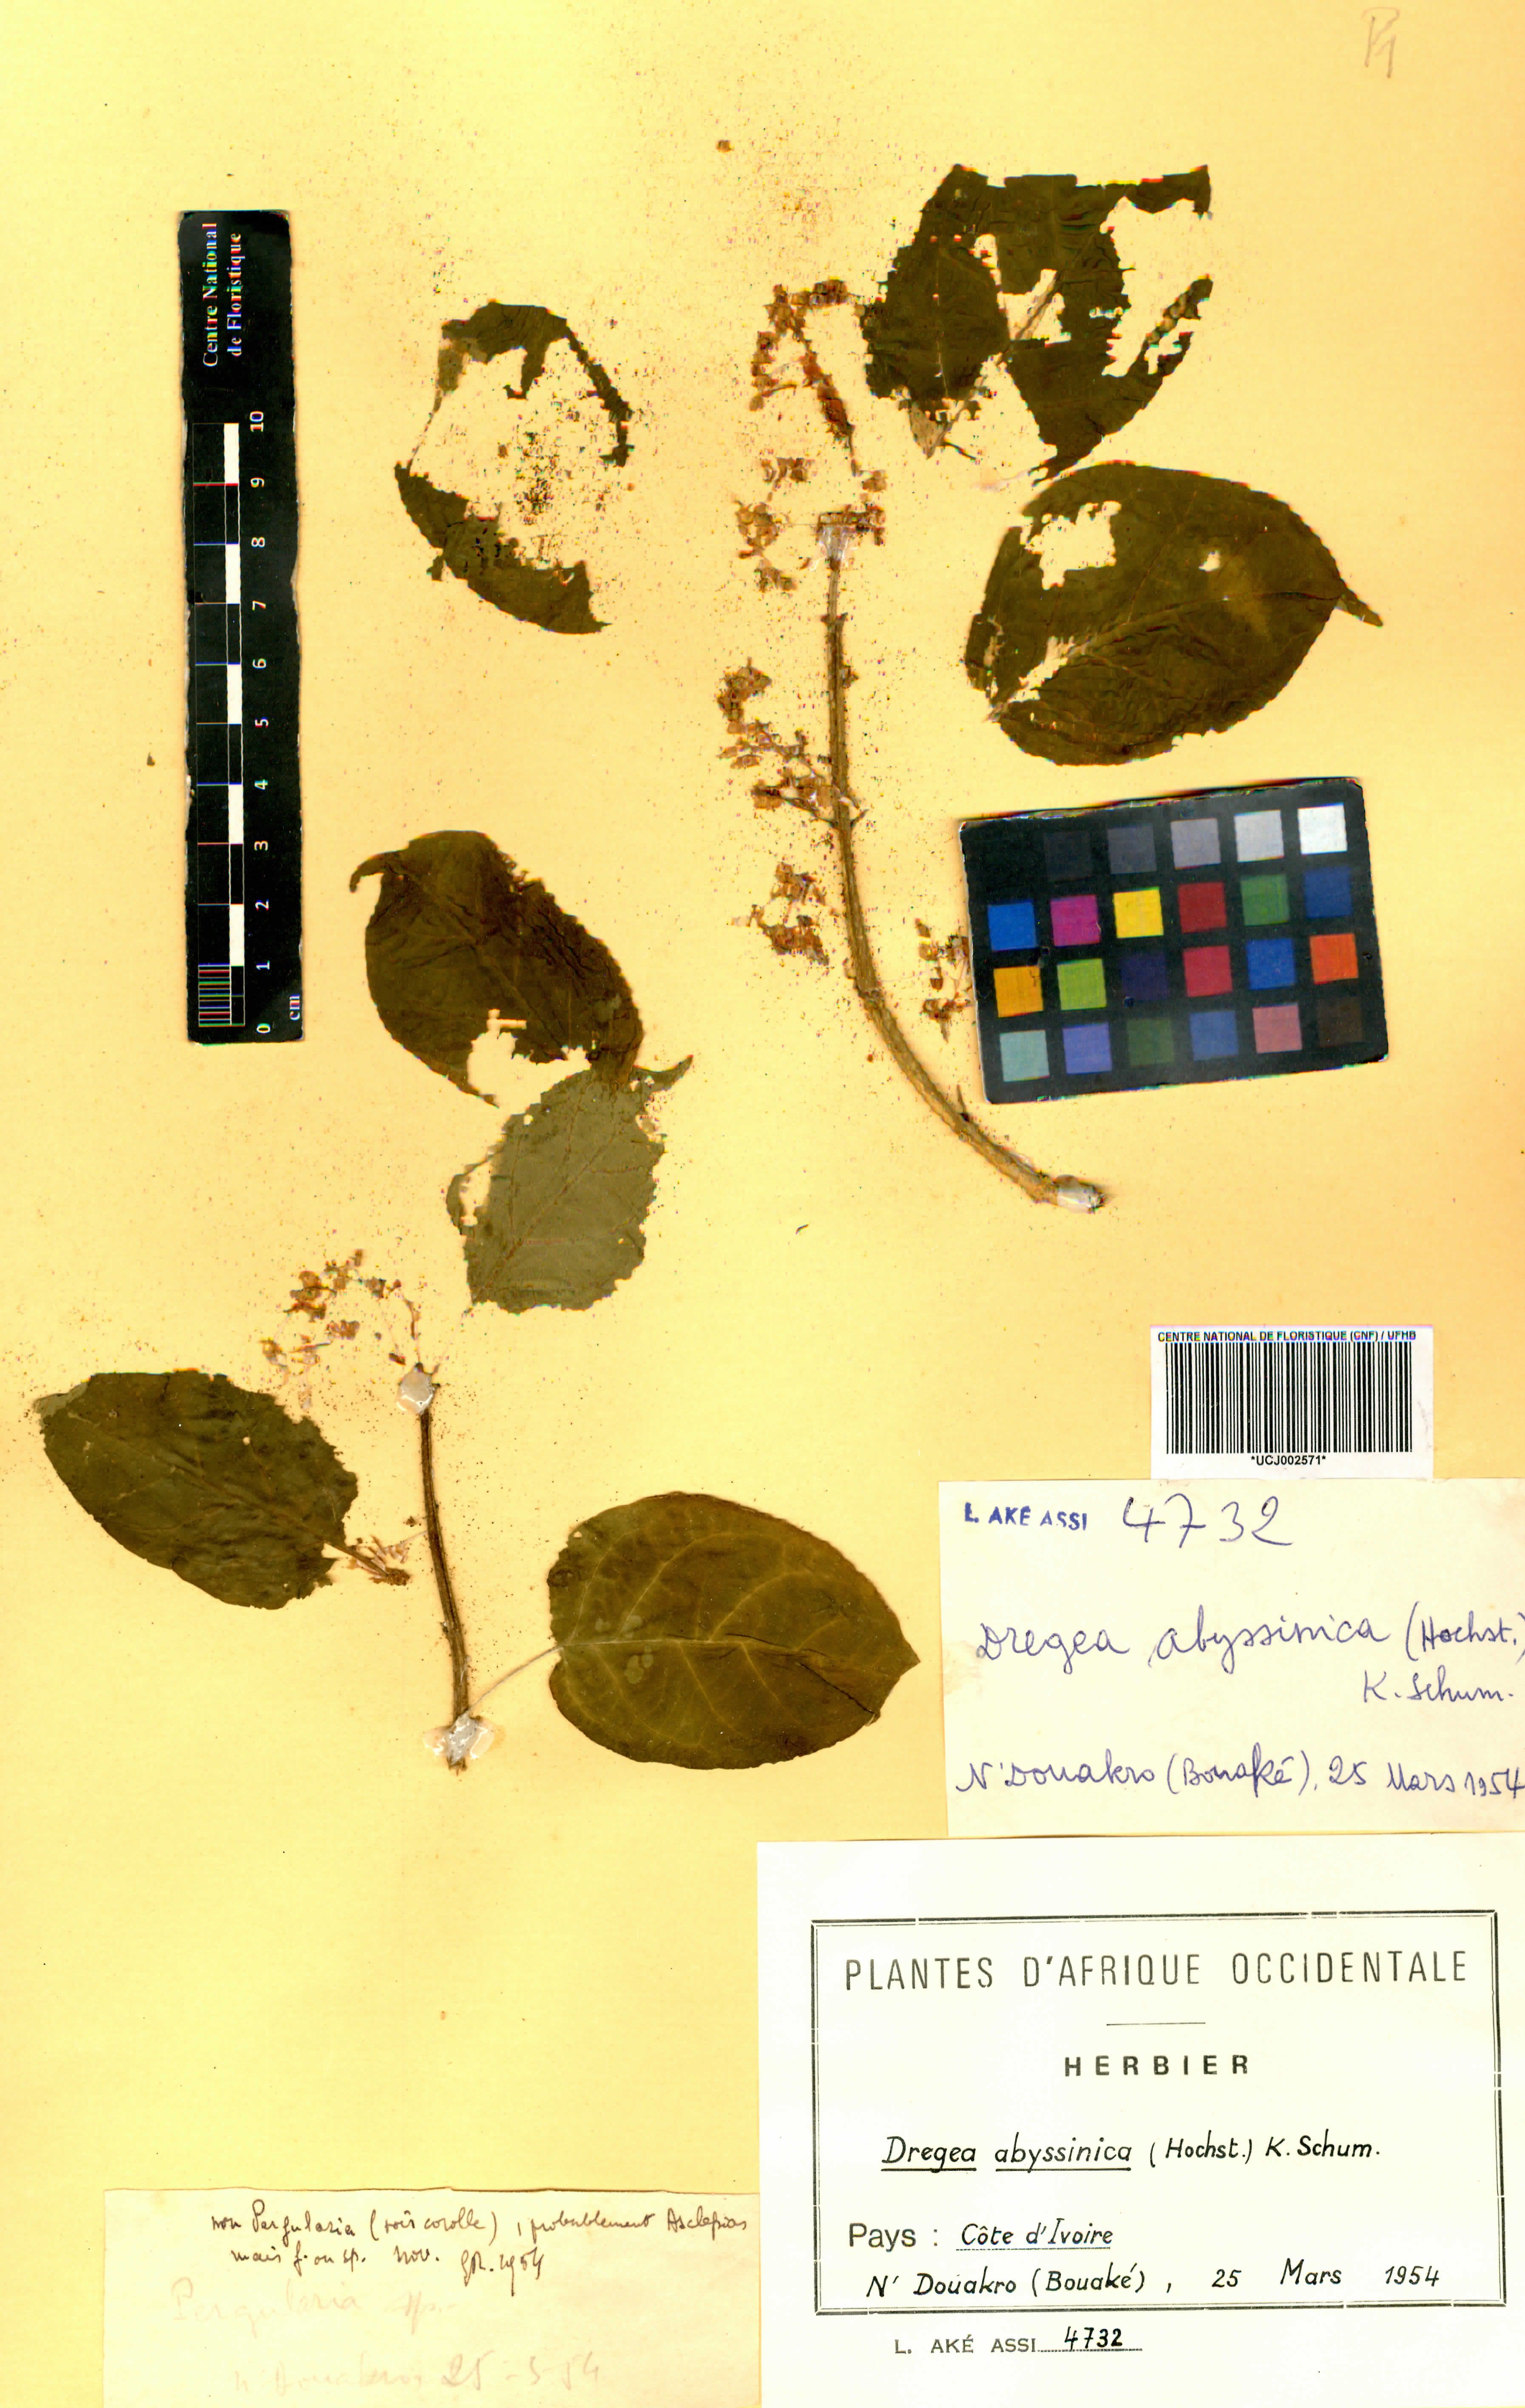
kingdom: Plantae
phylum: Tracheophyta
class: Magnoliopsida
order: Gentianales
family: Apocynaceae
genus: Stephanotis
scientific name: Stephanotis abyssinica
